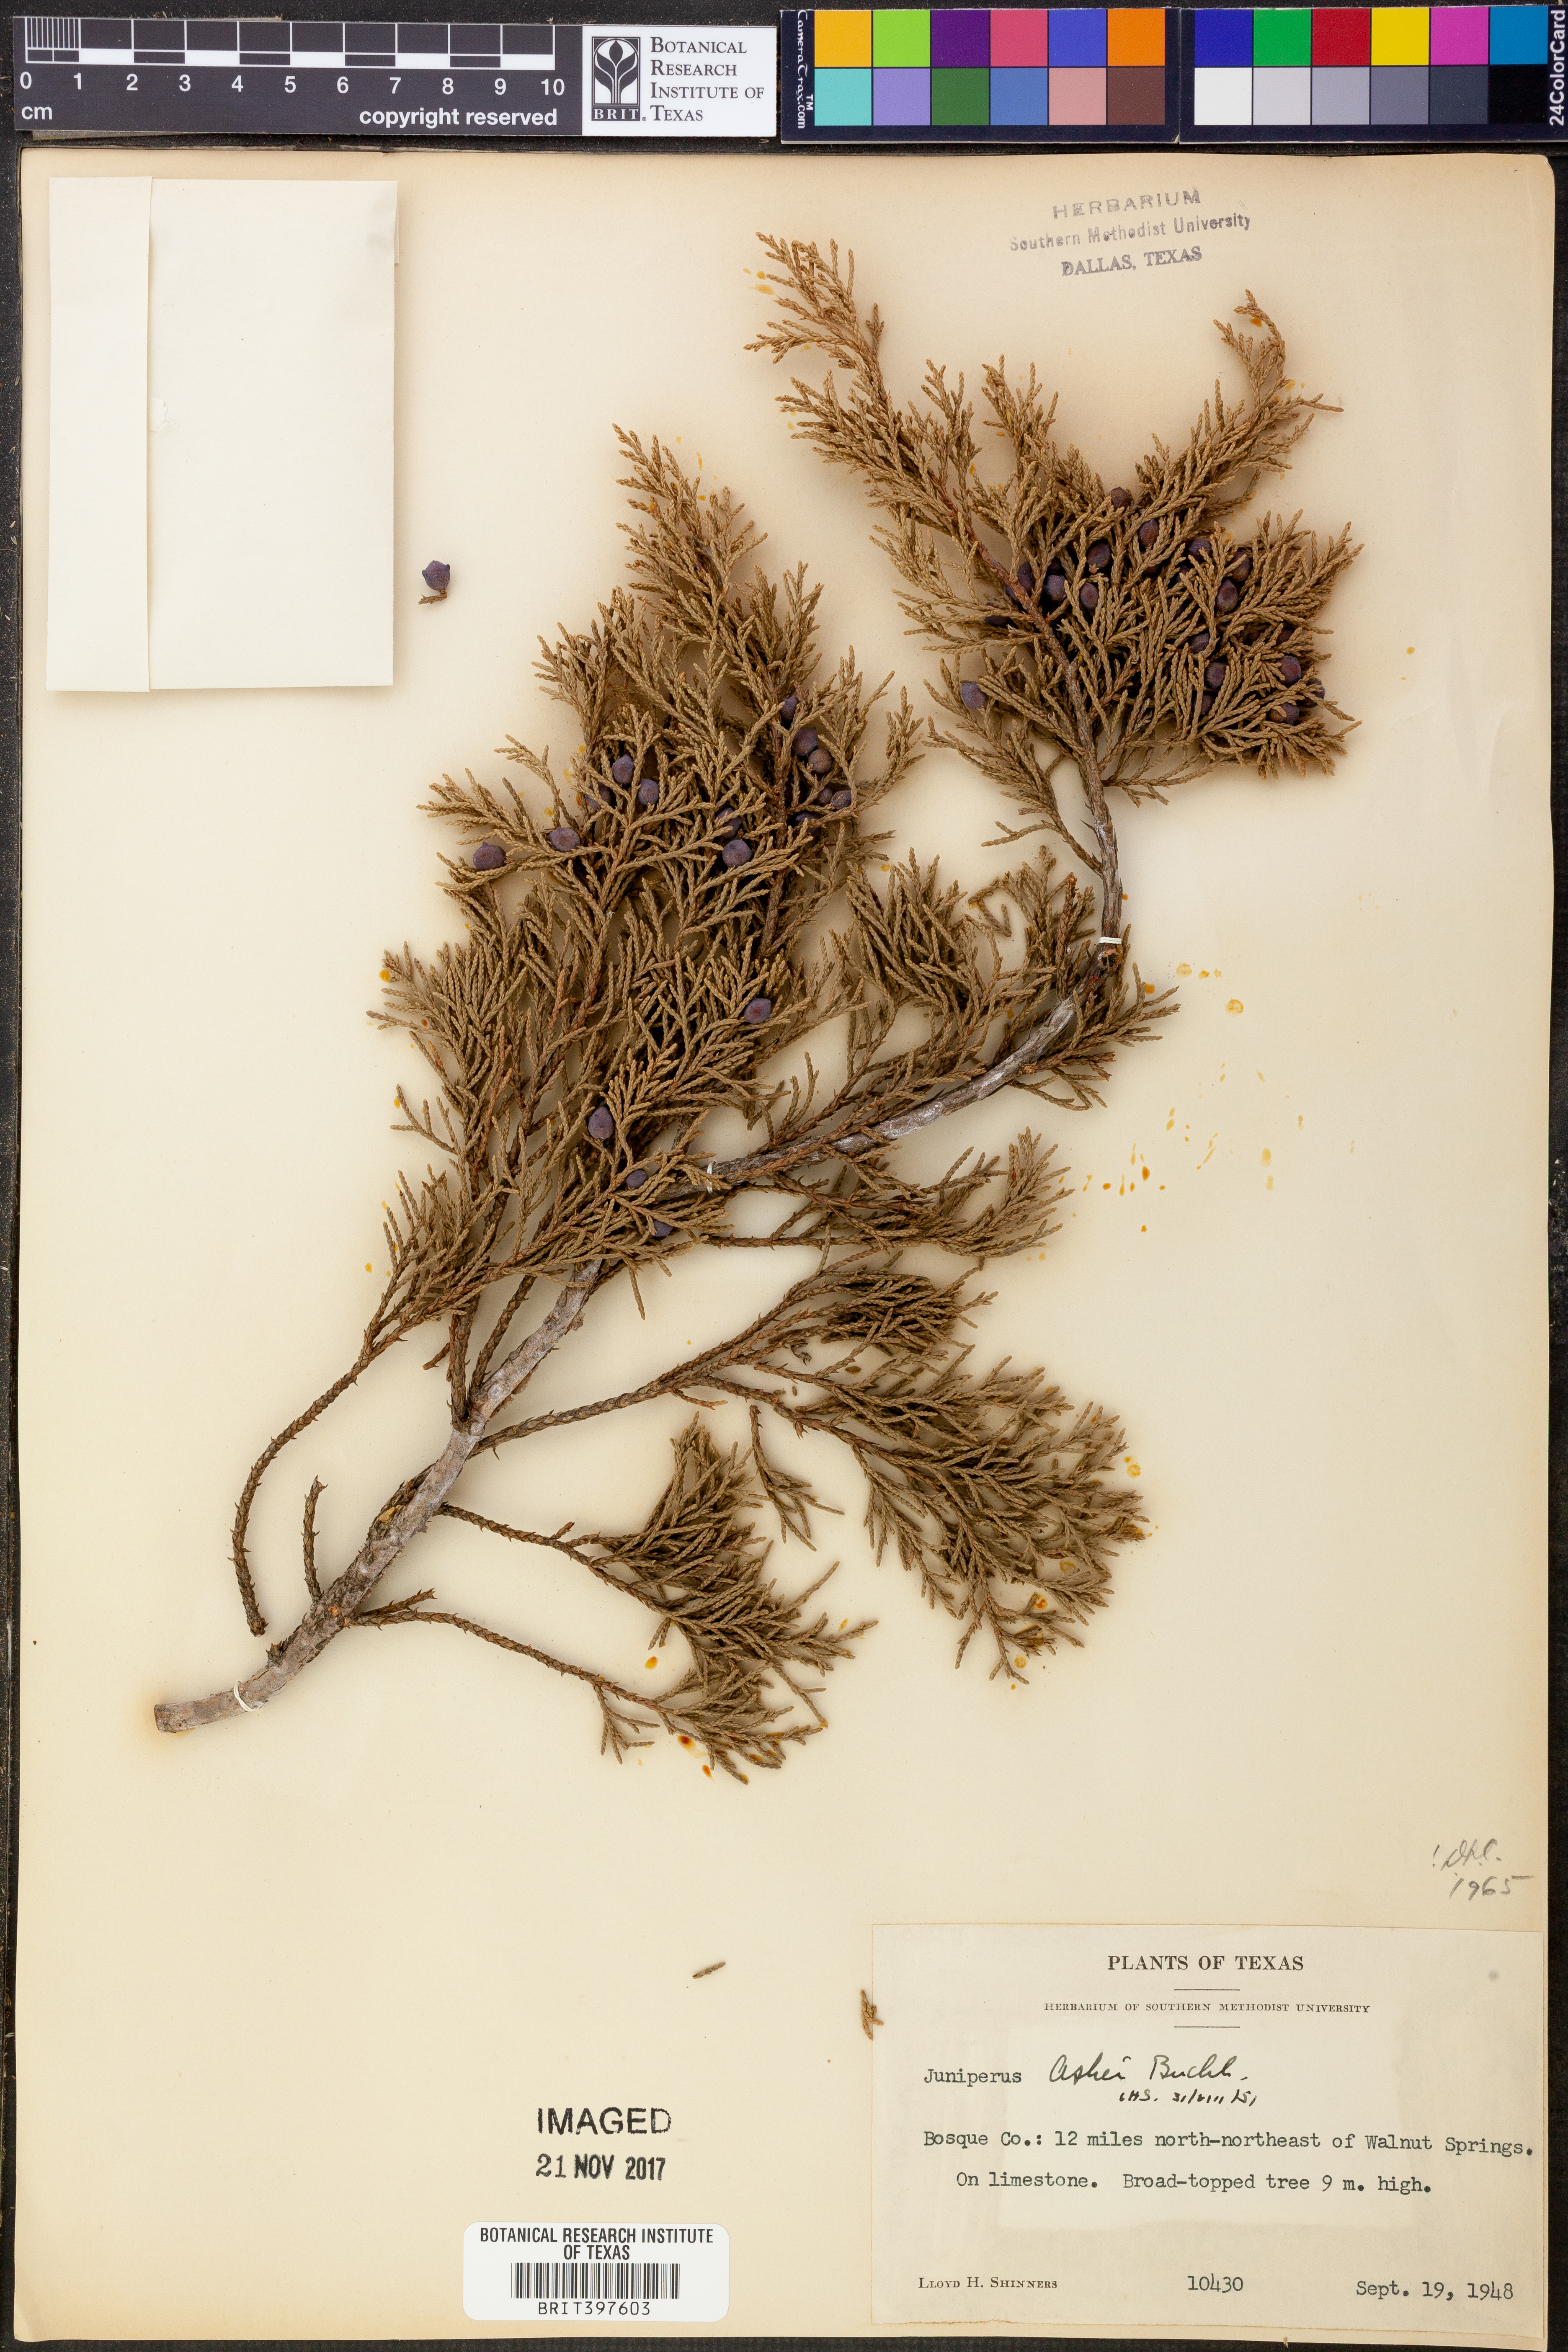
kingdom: Plantae
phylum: Tracheophyta
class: Pinopsida
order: Pinales
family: Cupressaceae
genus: Juniperus
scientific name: Juniperus ashei
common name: Mexican juniper
